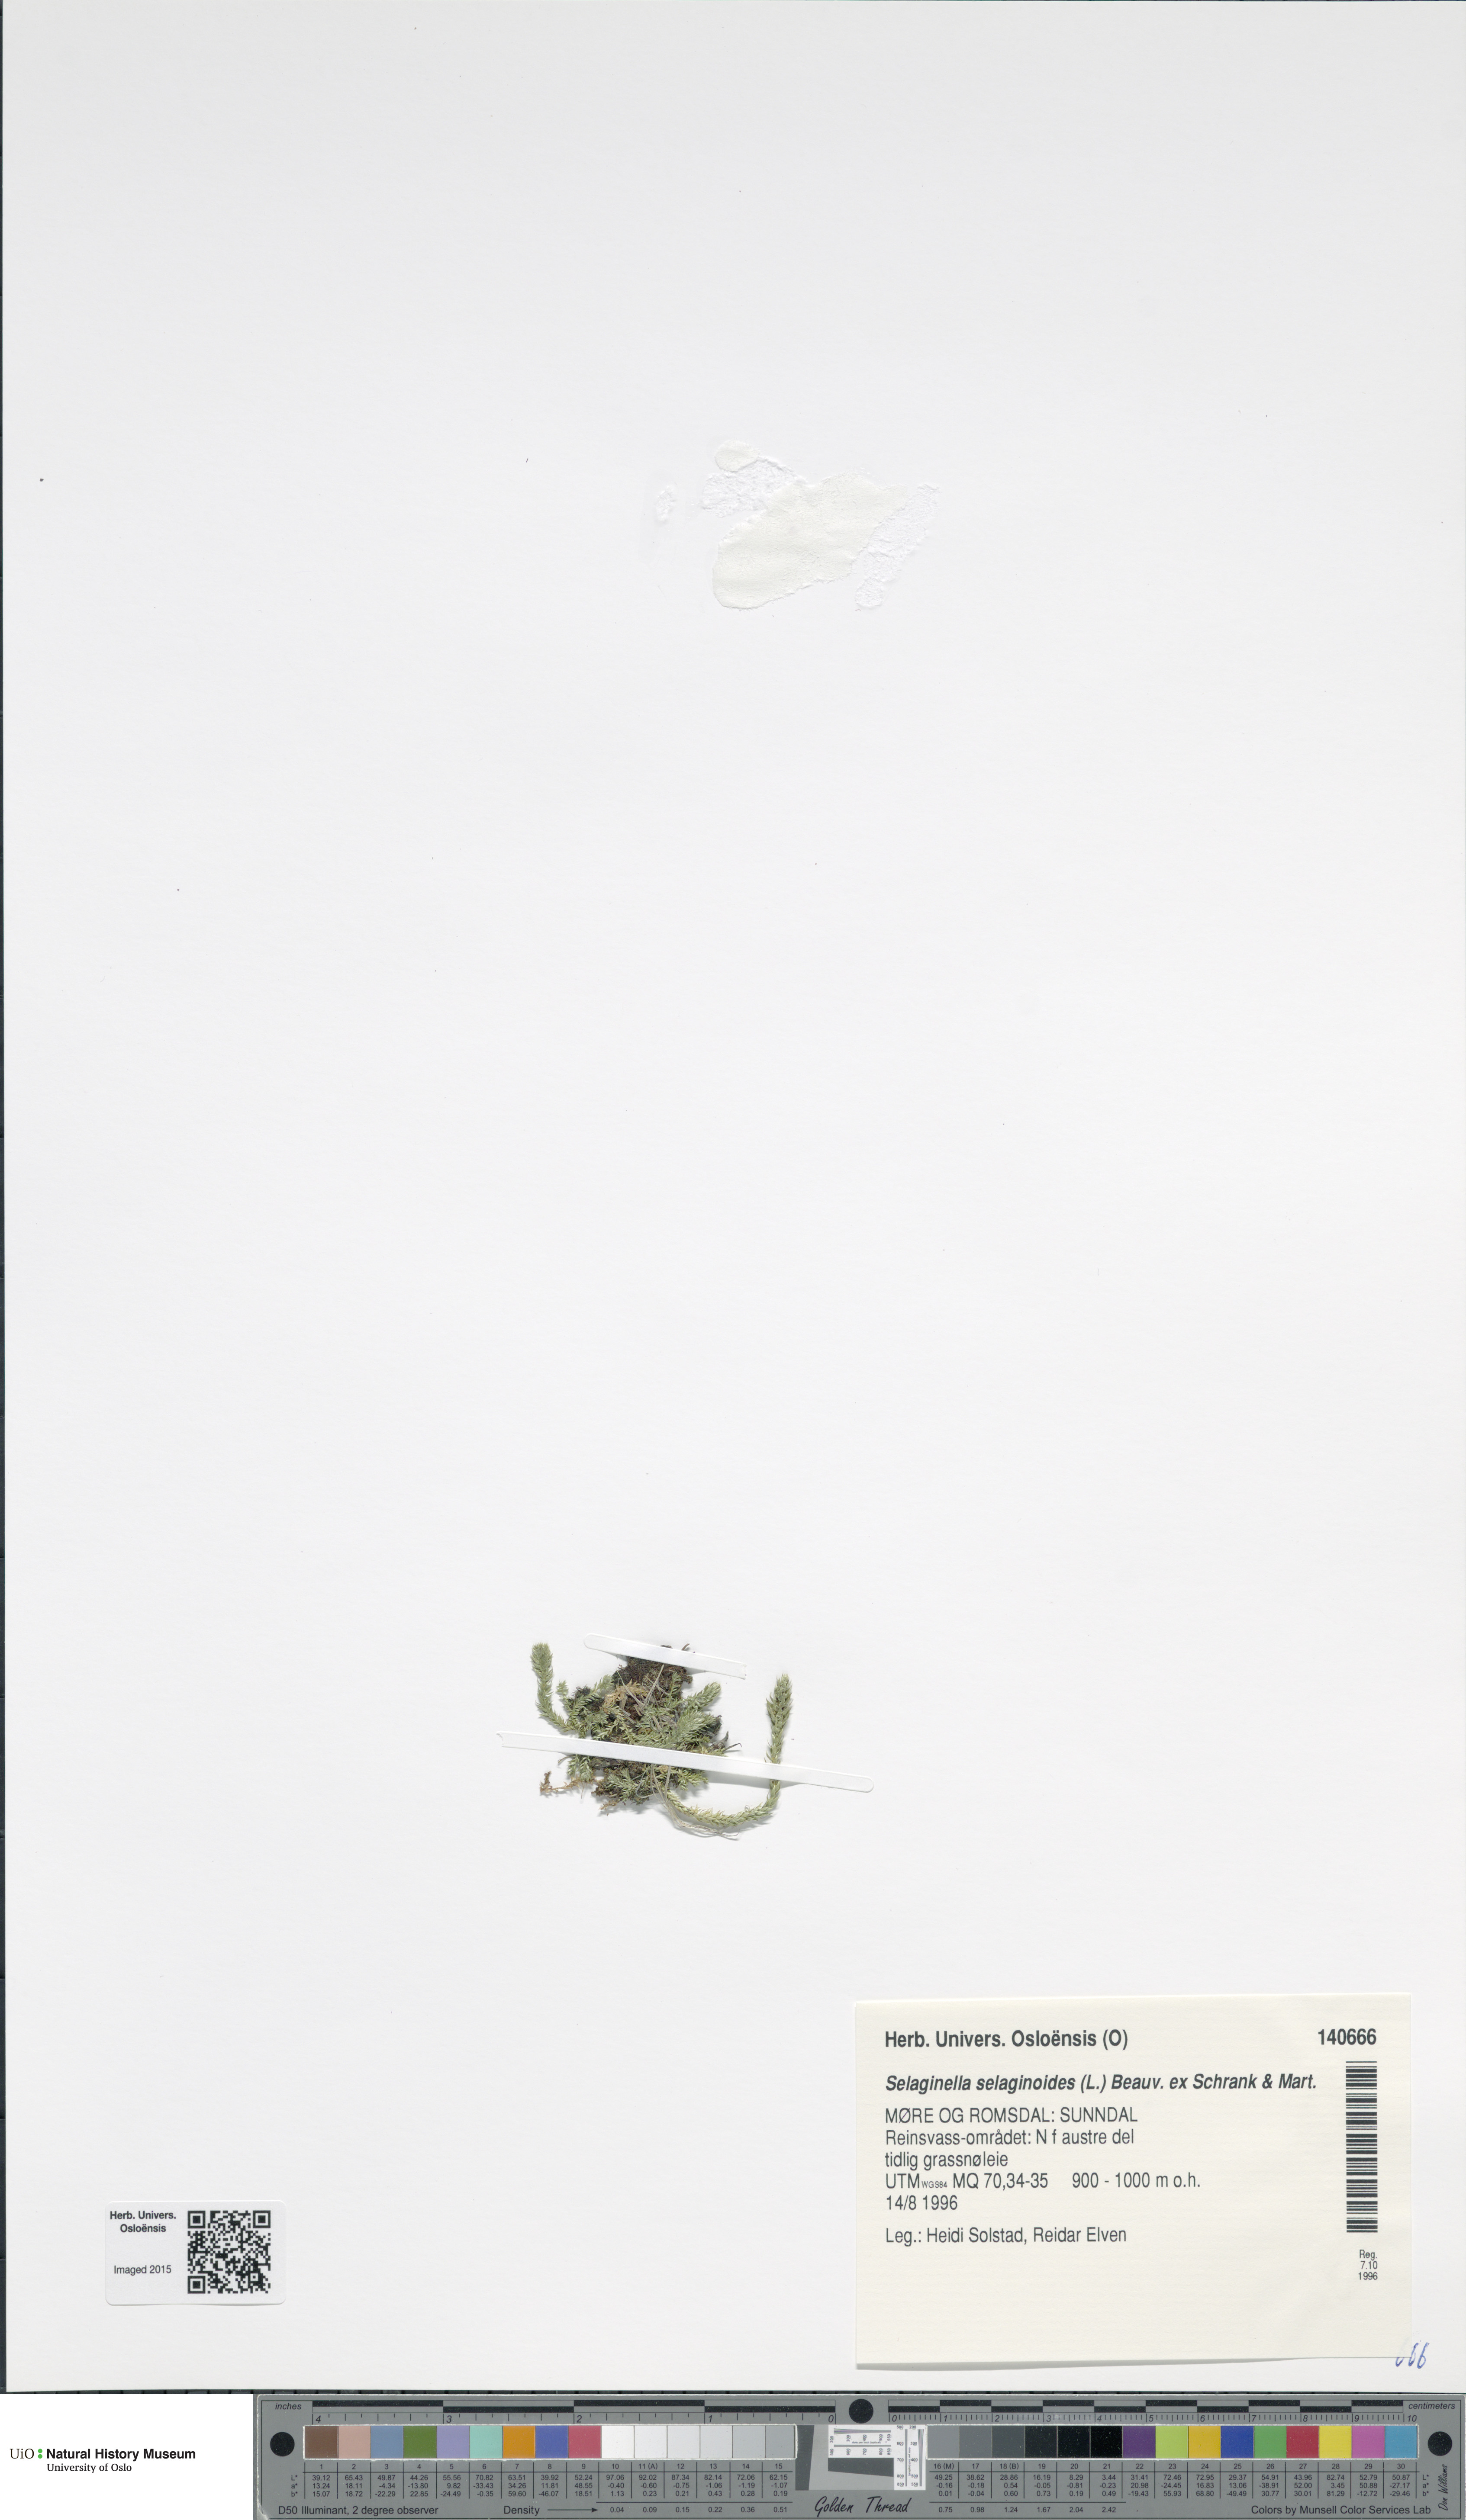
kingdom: Plantae
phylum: Tracheophyta
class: Lycopodiopsida
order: Selaginellales
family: Selaginellaceae
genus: Selaginella
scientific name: Selaginella selaginoides
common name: Prickly mountain-moss
